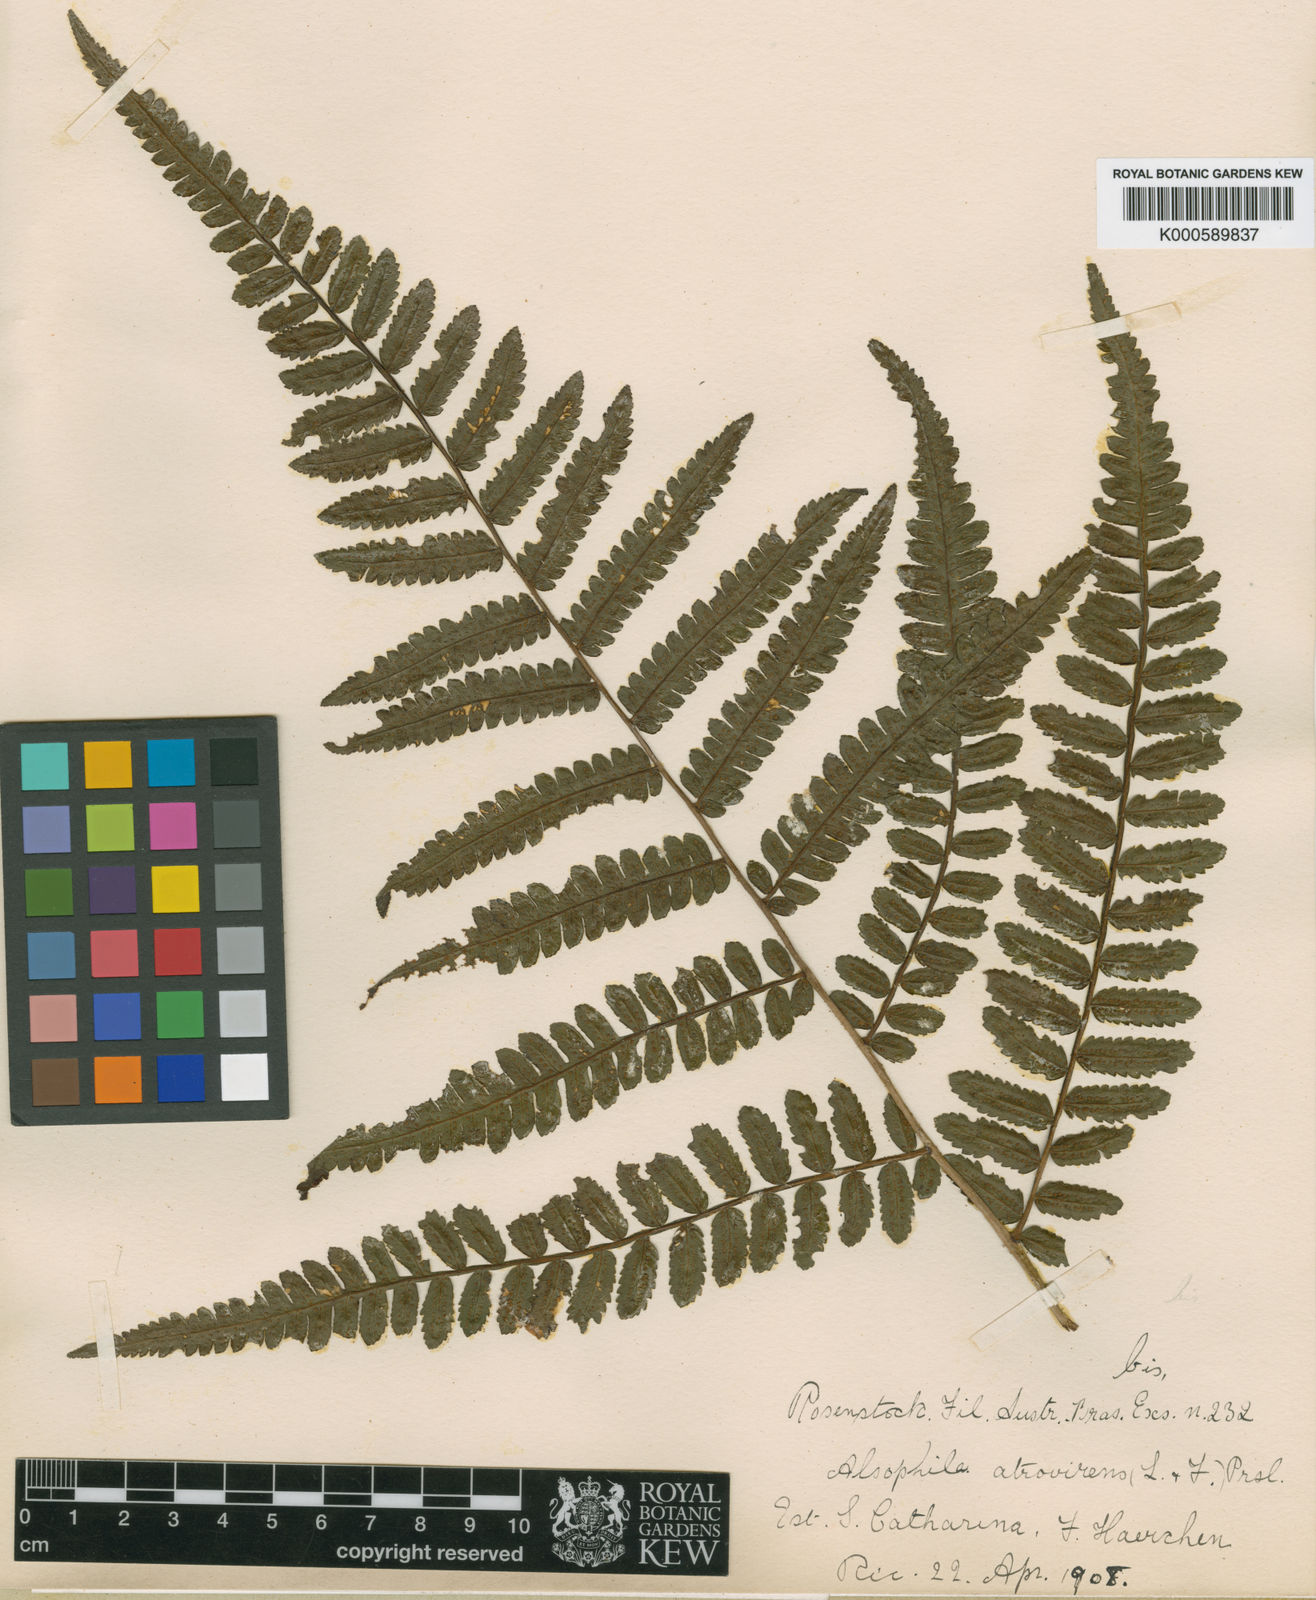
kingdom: Plantae
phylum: Tracheophyta
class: Polypodiopsida
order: Cyatheales
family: Cyatheaceae
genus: Cyathea
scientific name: Cyathea atrovirens
